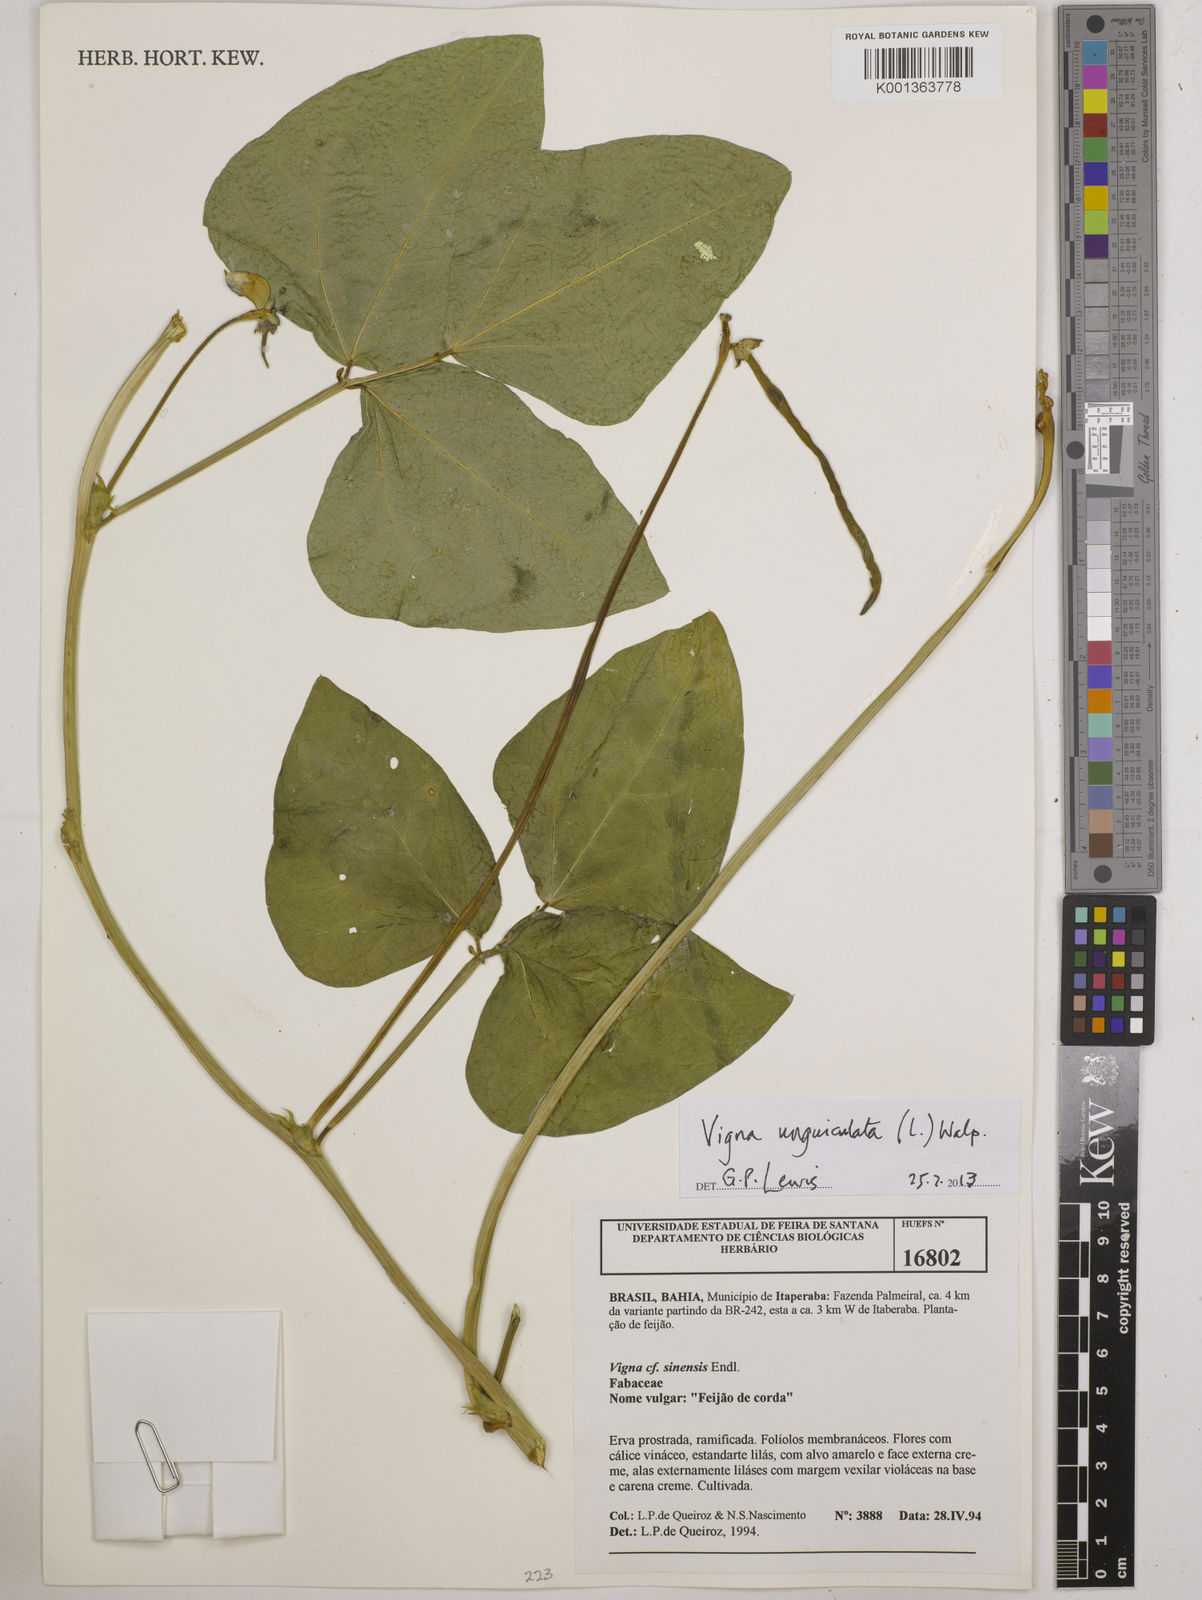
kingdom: Plantae
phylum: Tracheophyta
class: Magnoliopsida
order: Fabales
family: Fabaceae
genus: Vigna
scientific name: Vigna unguiculata
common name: Cowpea
